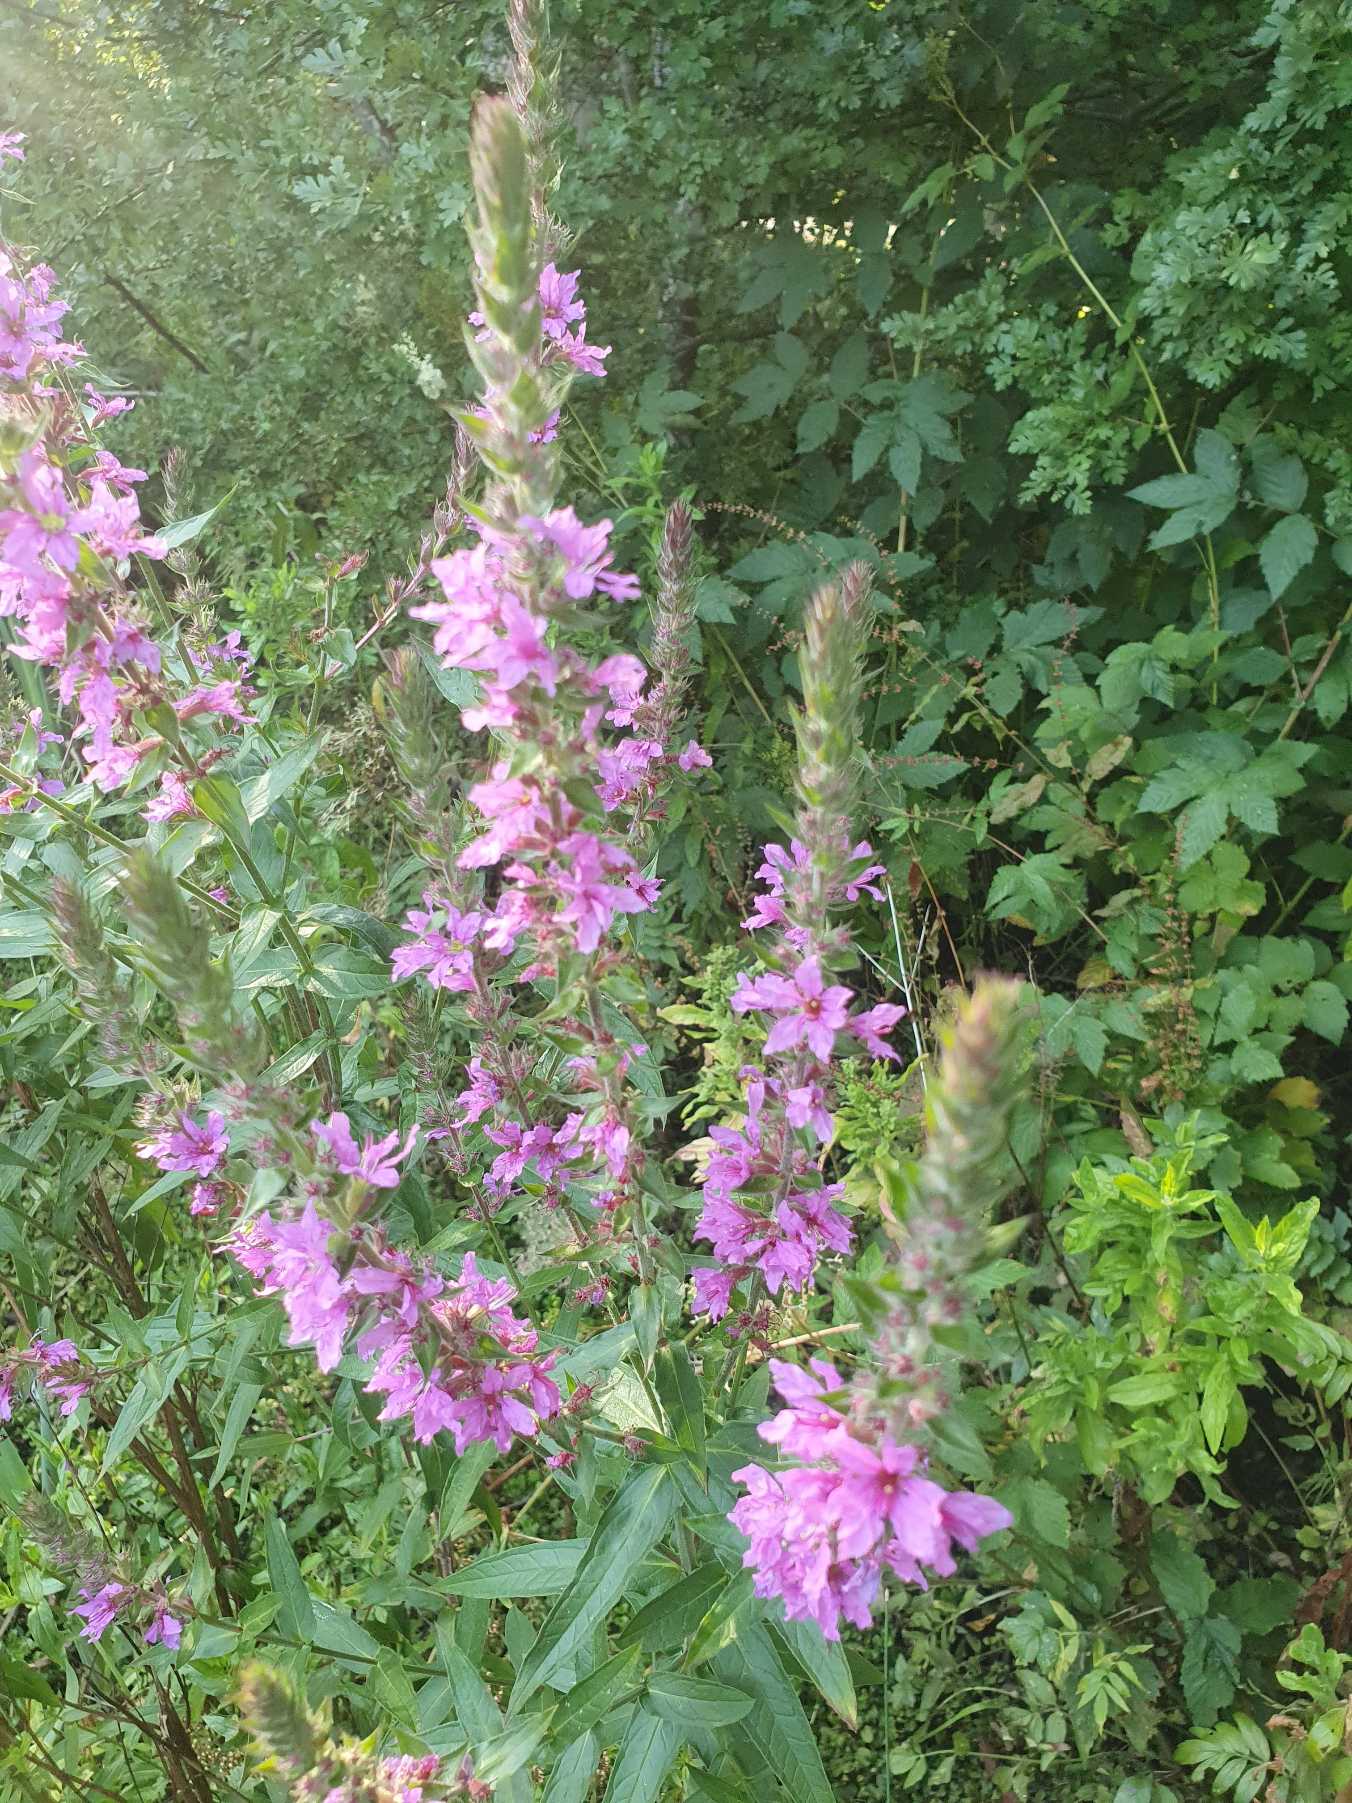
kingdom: Plantae
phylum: Tracheophyta
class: Magnoliopsida
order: Myrtales
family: Lythraceae
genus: Lythrum
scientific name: Lythrum salicaria
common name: Kattehale
